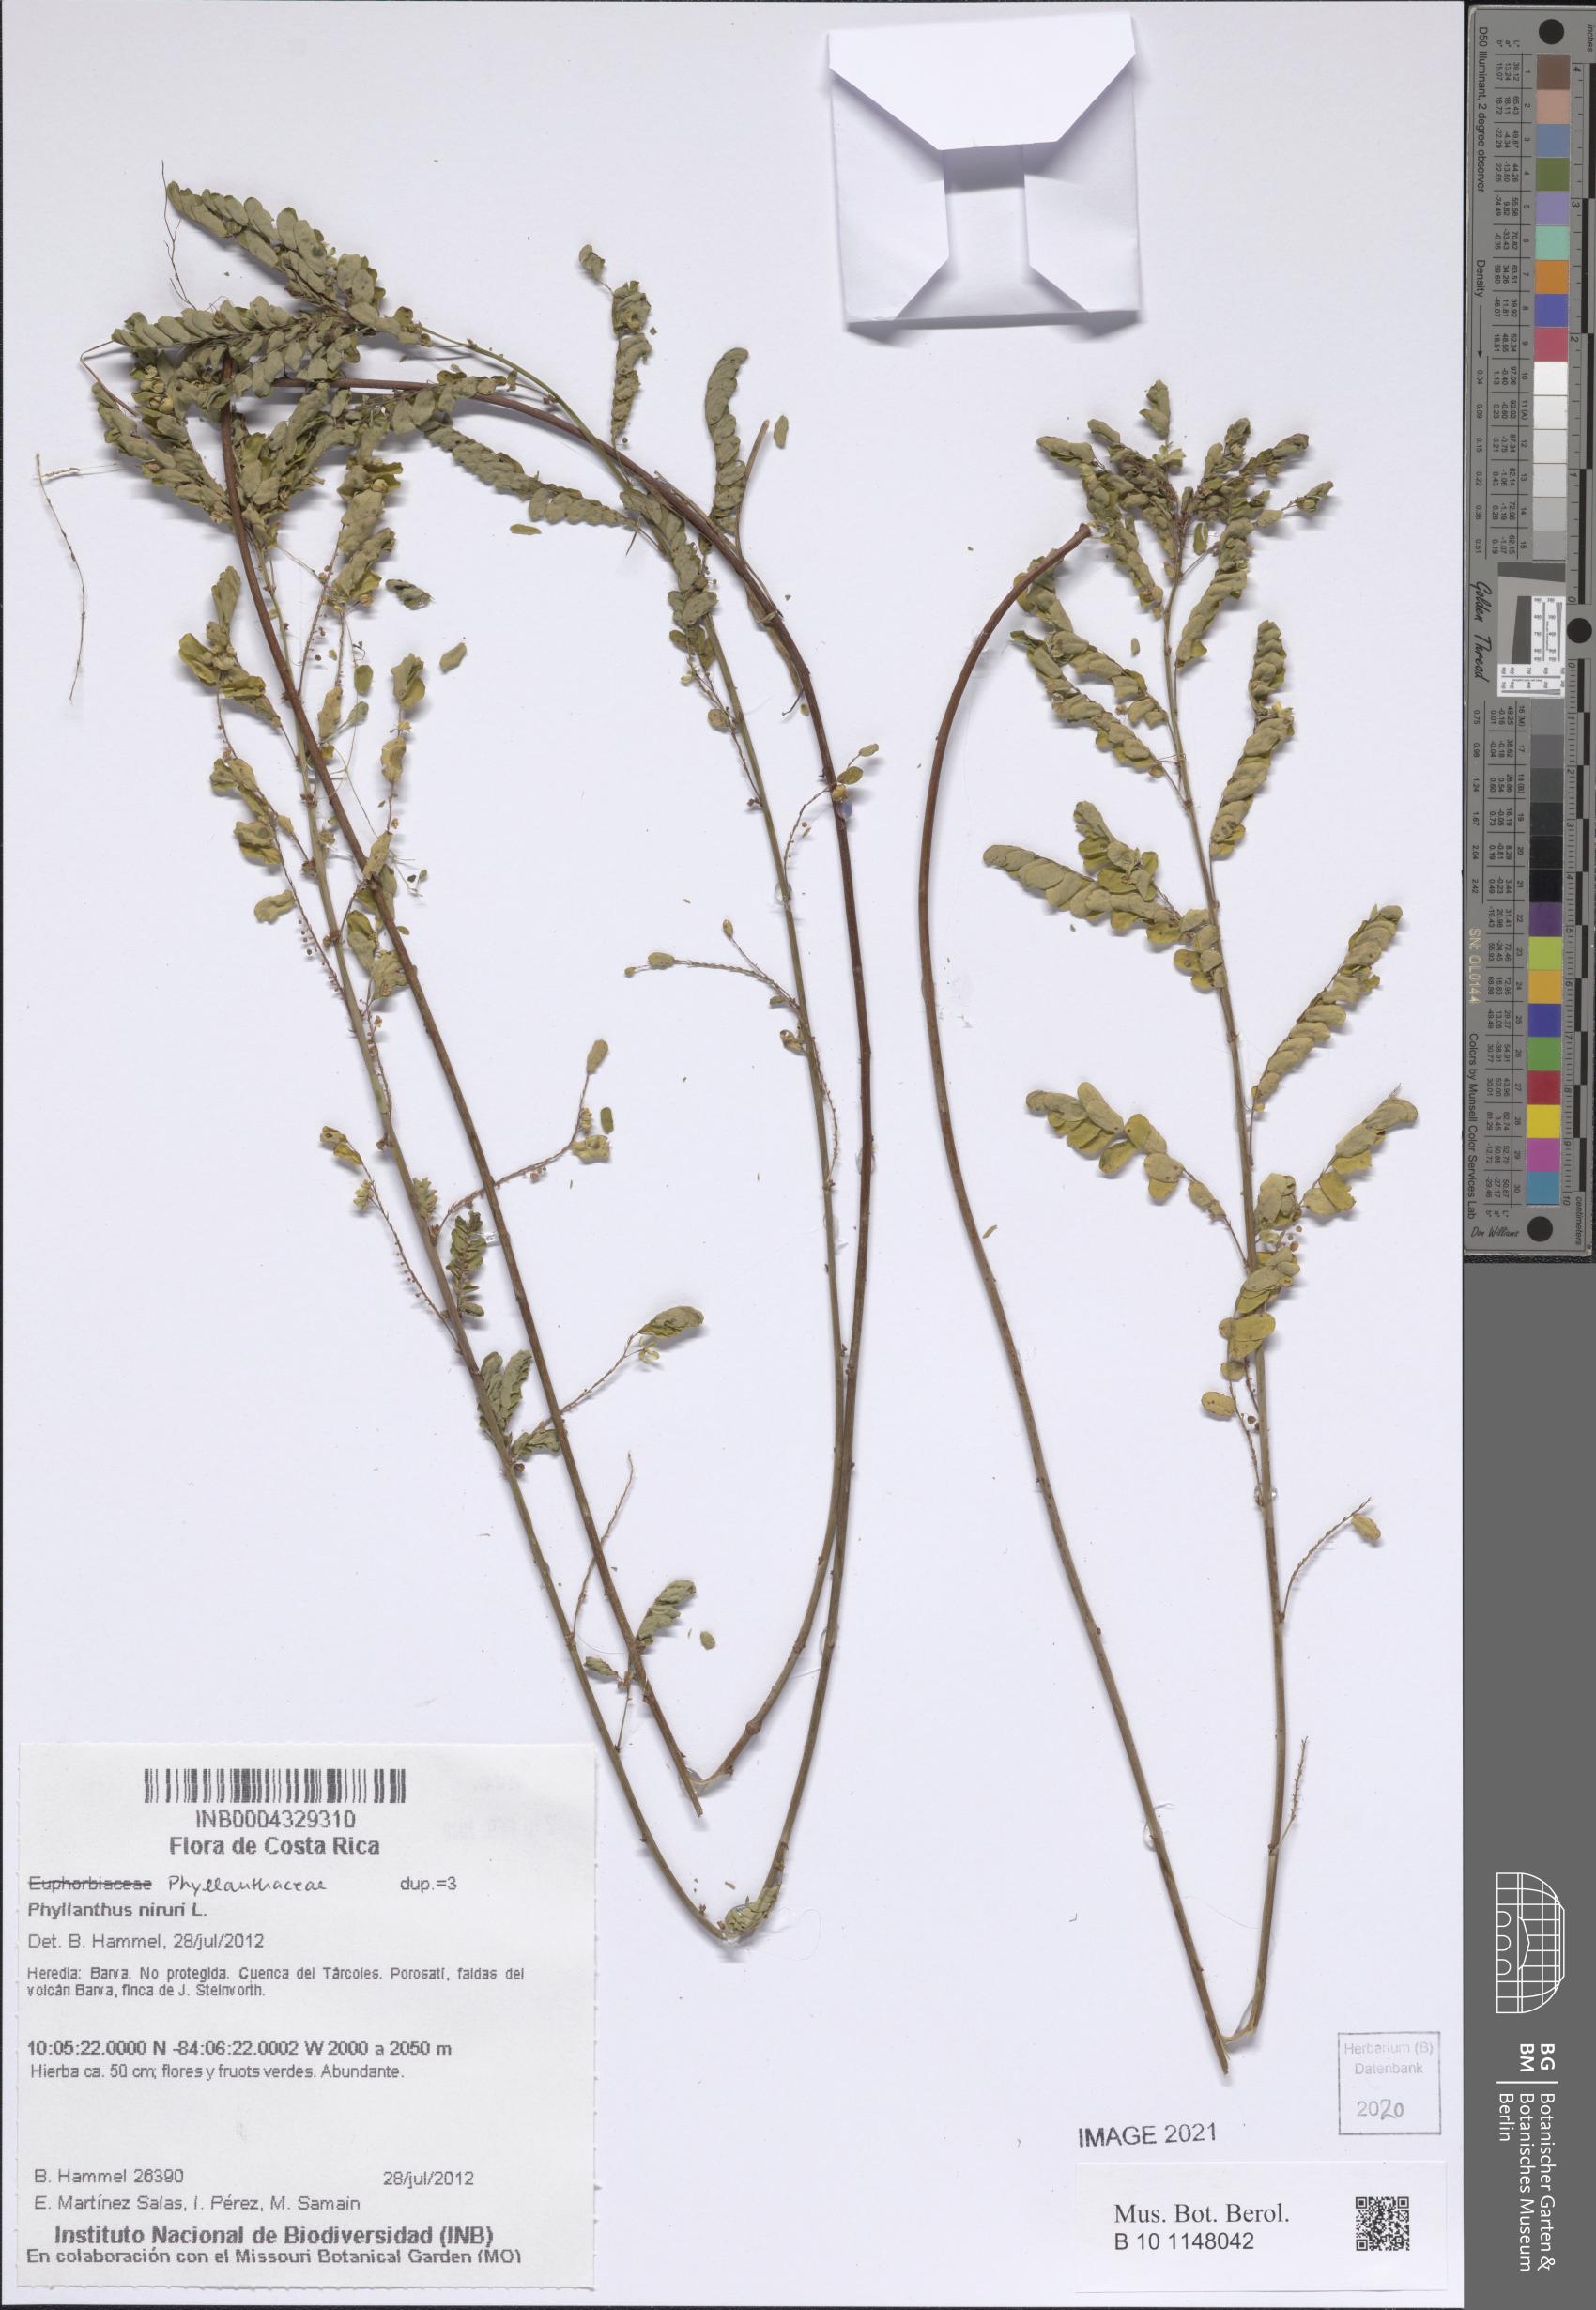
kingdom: Plantae
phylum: Tracheophyta
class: Magnoliopsida
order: Malpighiales
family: Phyllanthaceae
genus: Phyllanthus
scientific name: Phyllanthus niruri
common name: Niruri
